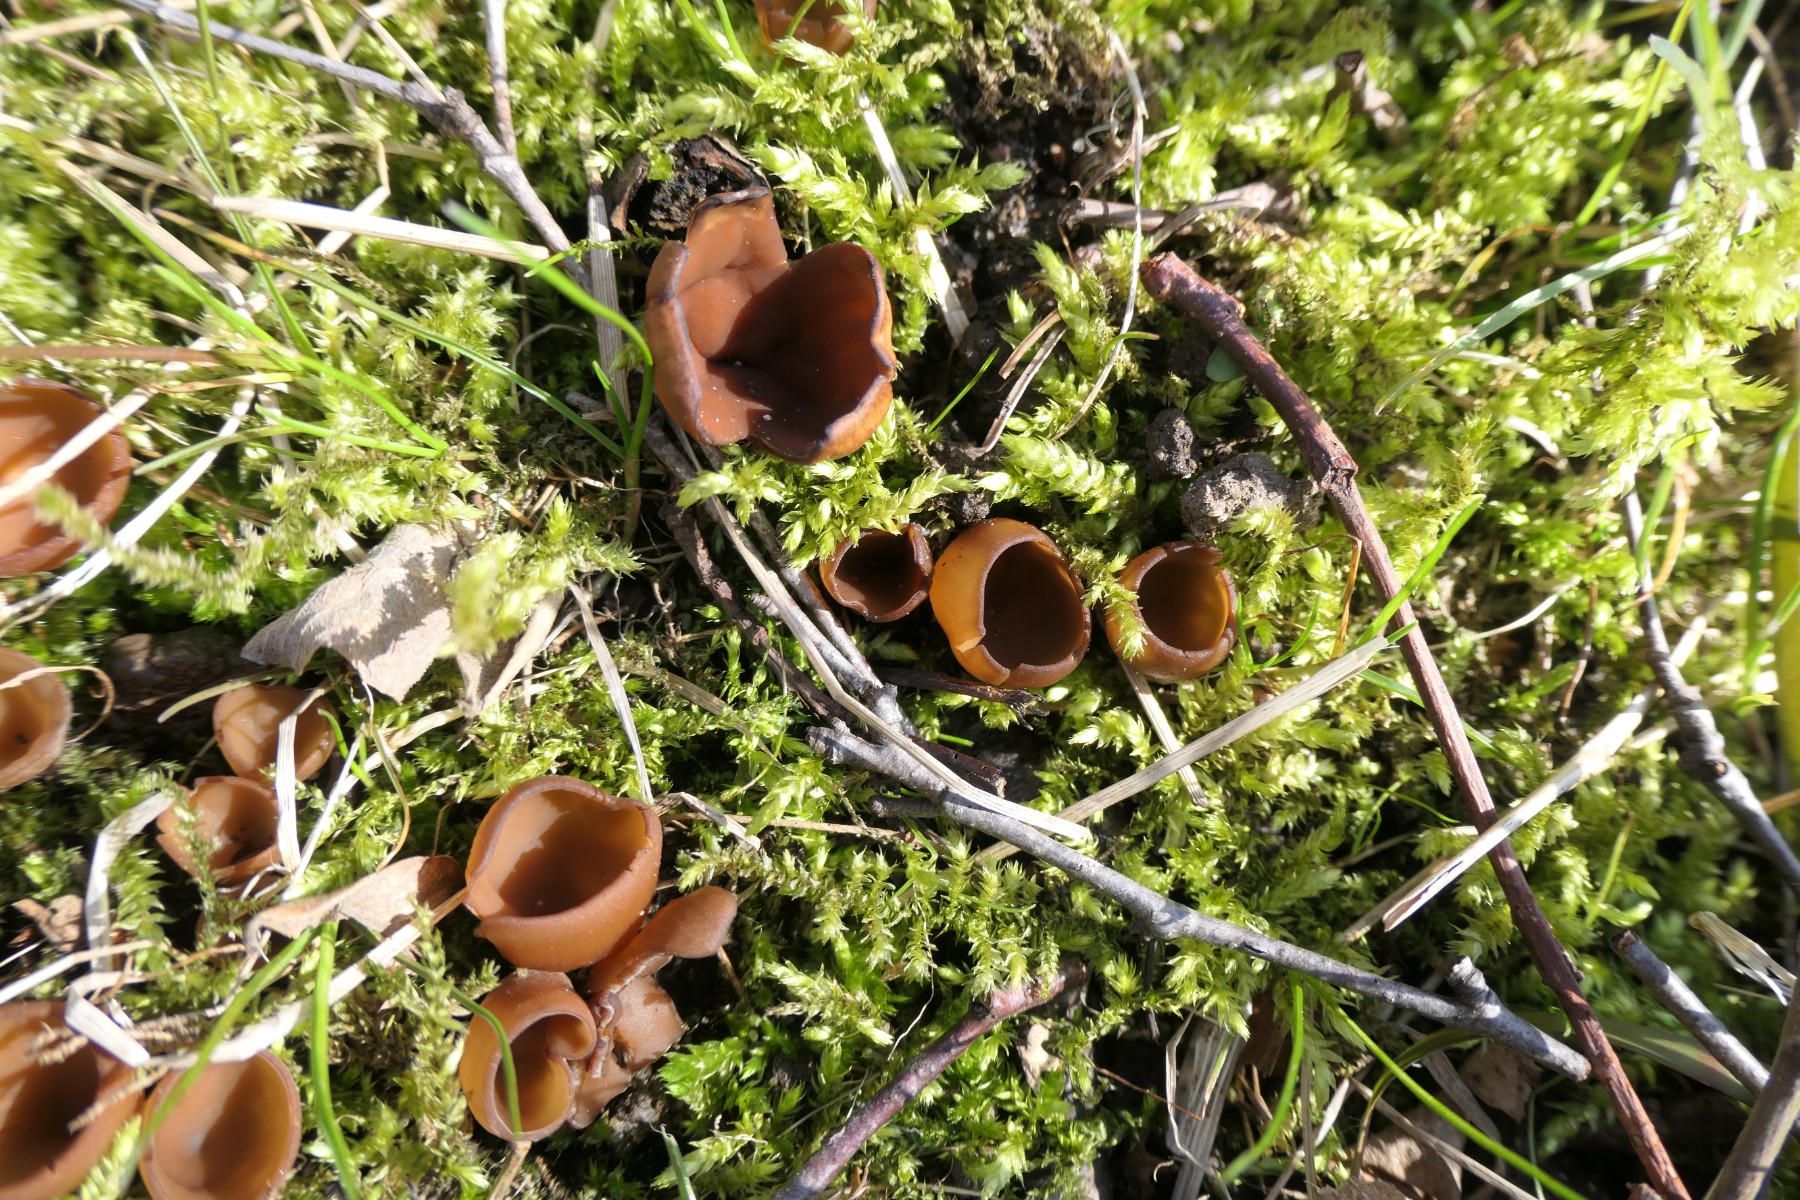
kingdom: Fungi
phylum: Ascomycota
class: Leotiomycetes
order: Helotiales
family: Sclerotiniaceae
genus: Dumontinia
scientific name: Dumontinia tuberosa
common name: anemone-knoldskive
